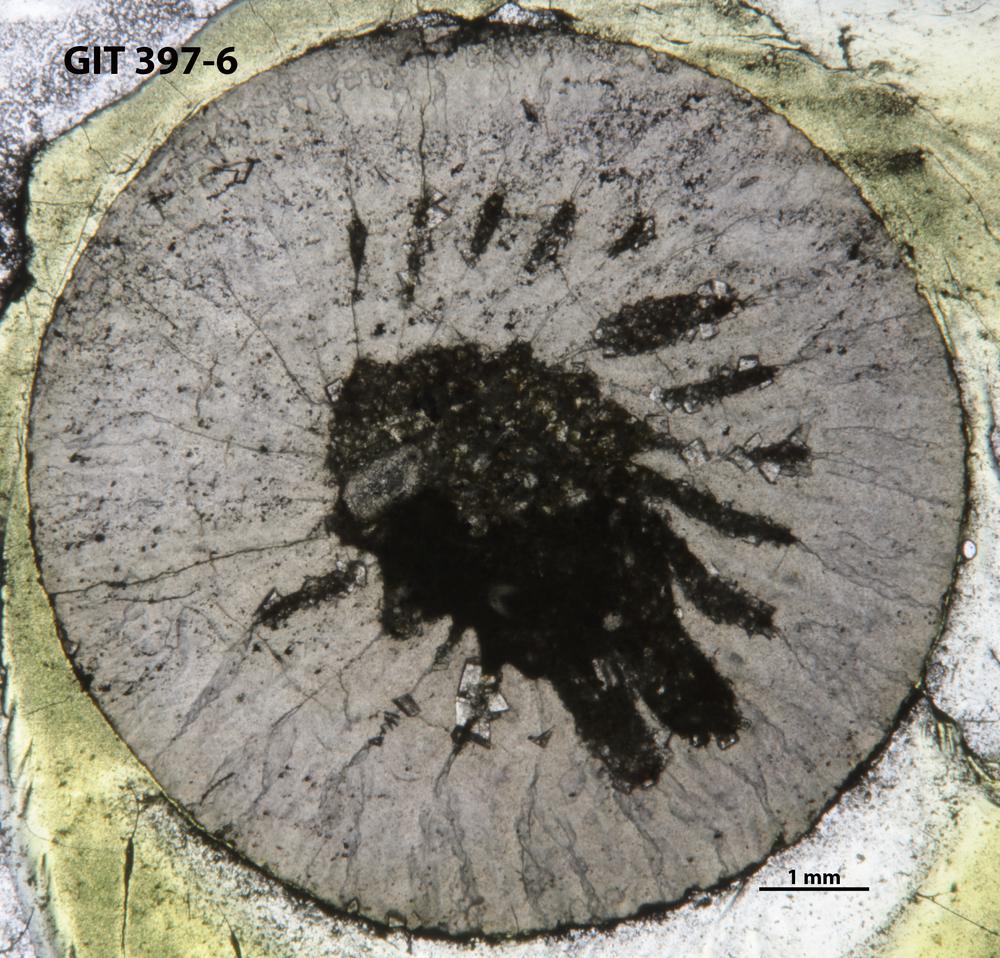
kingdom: Animalia
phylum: Cnidaria
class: Anthozoa
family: Lykophyllidae
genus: Pycnactis
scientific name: Pycnactis
